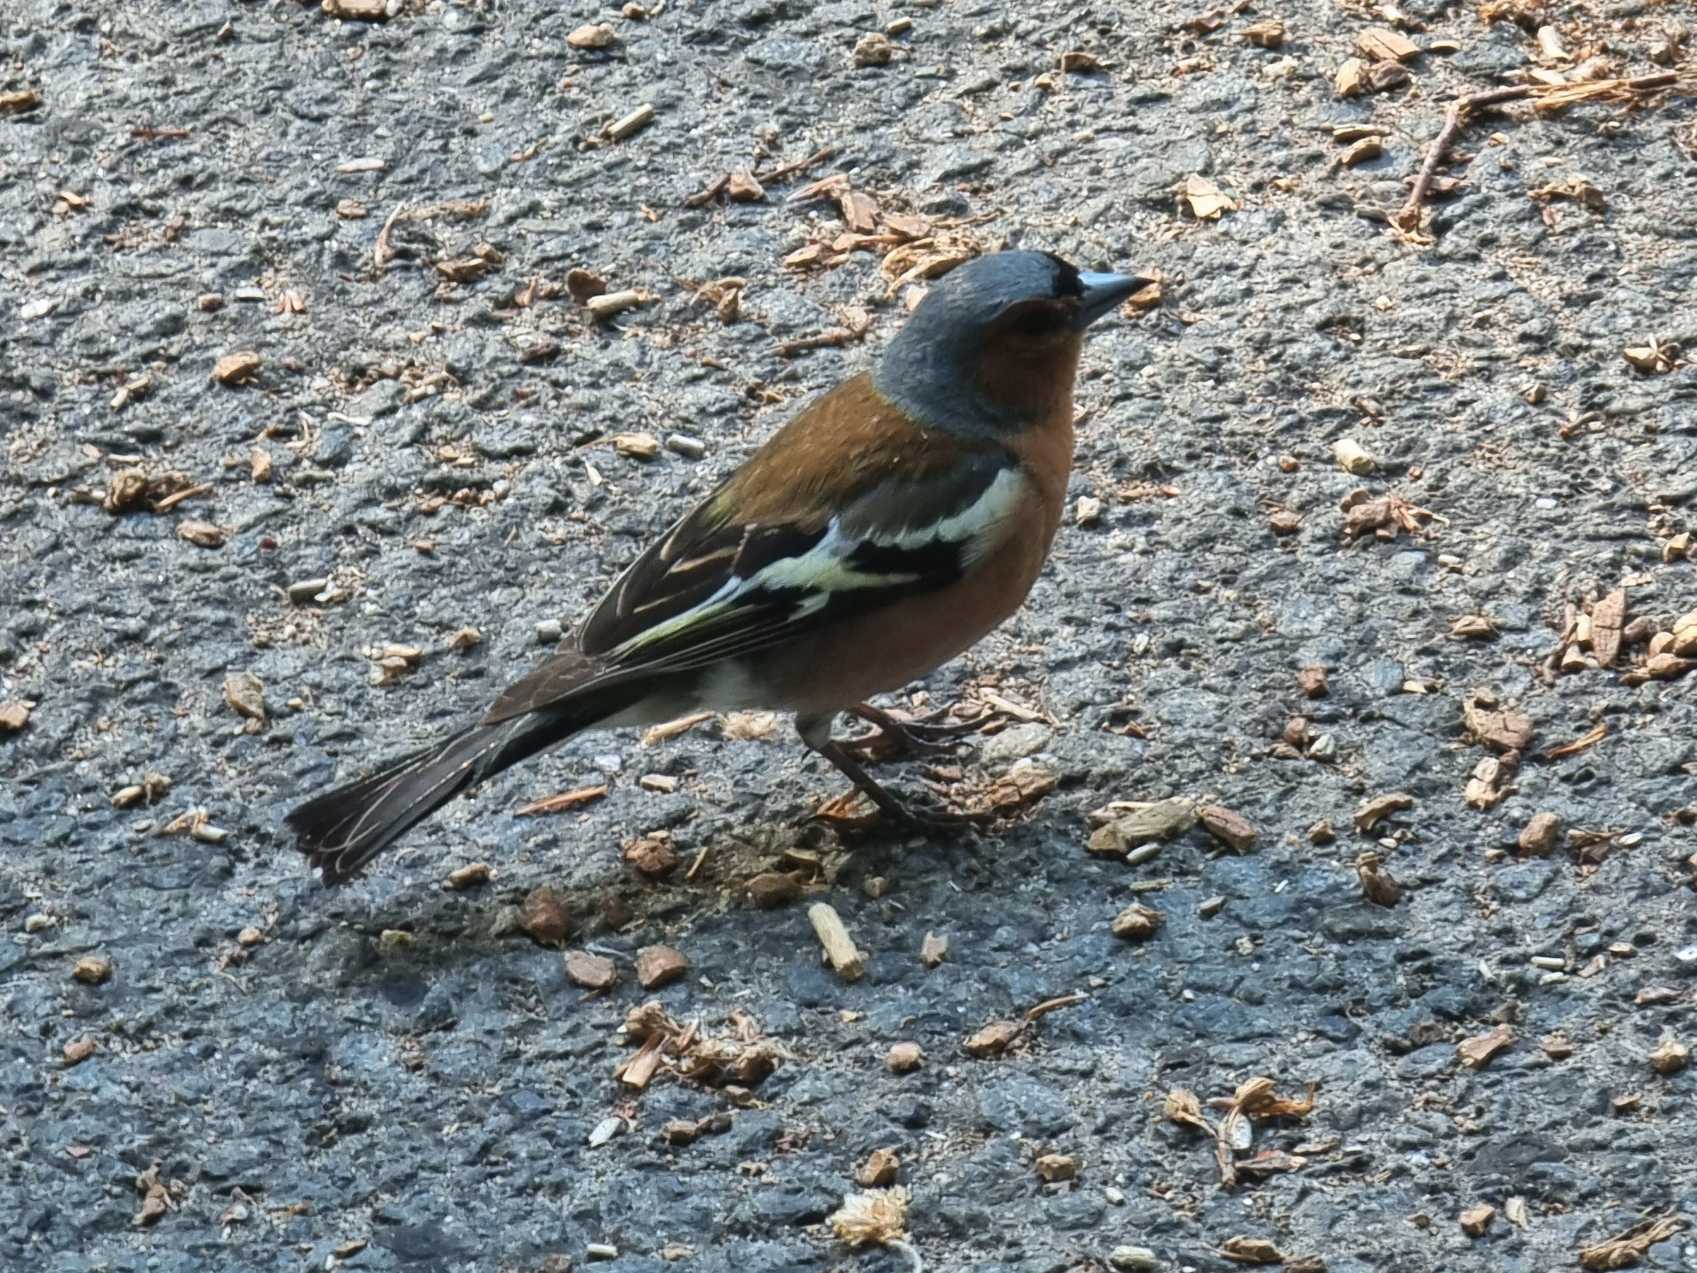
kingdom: Animalia
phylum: Chordata
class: Aves
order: Passeriformes
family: Fringillidae
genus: Fringilla
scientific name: Fringilla coelebs
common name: Bogfinke
